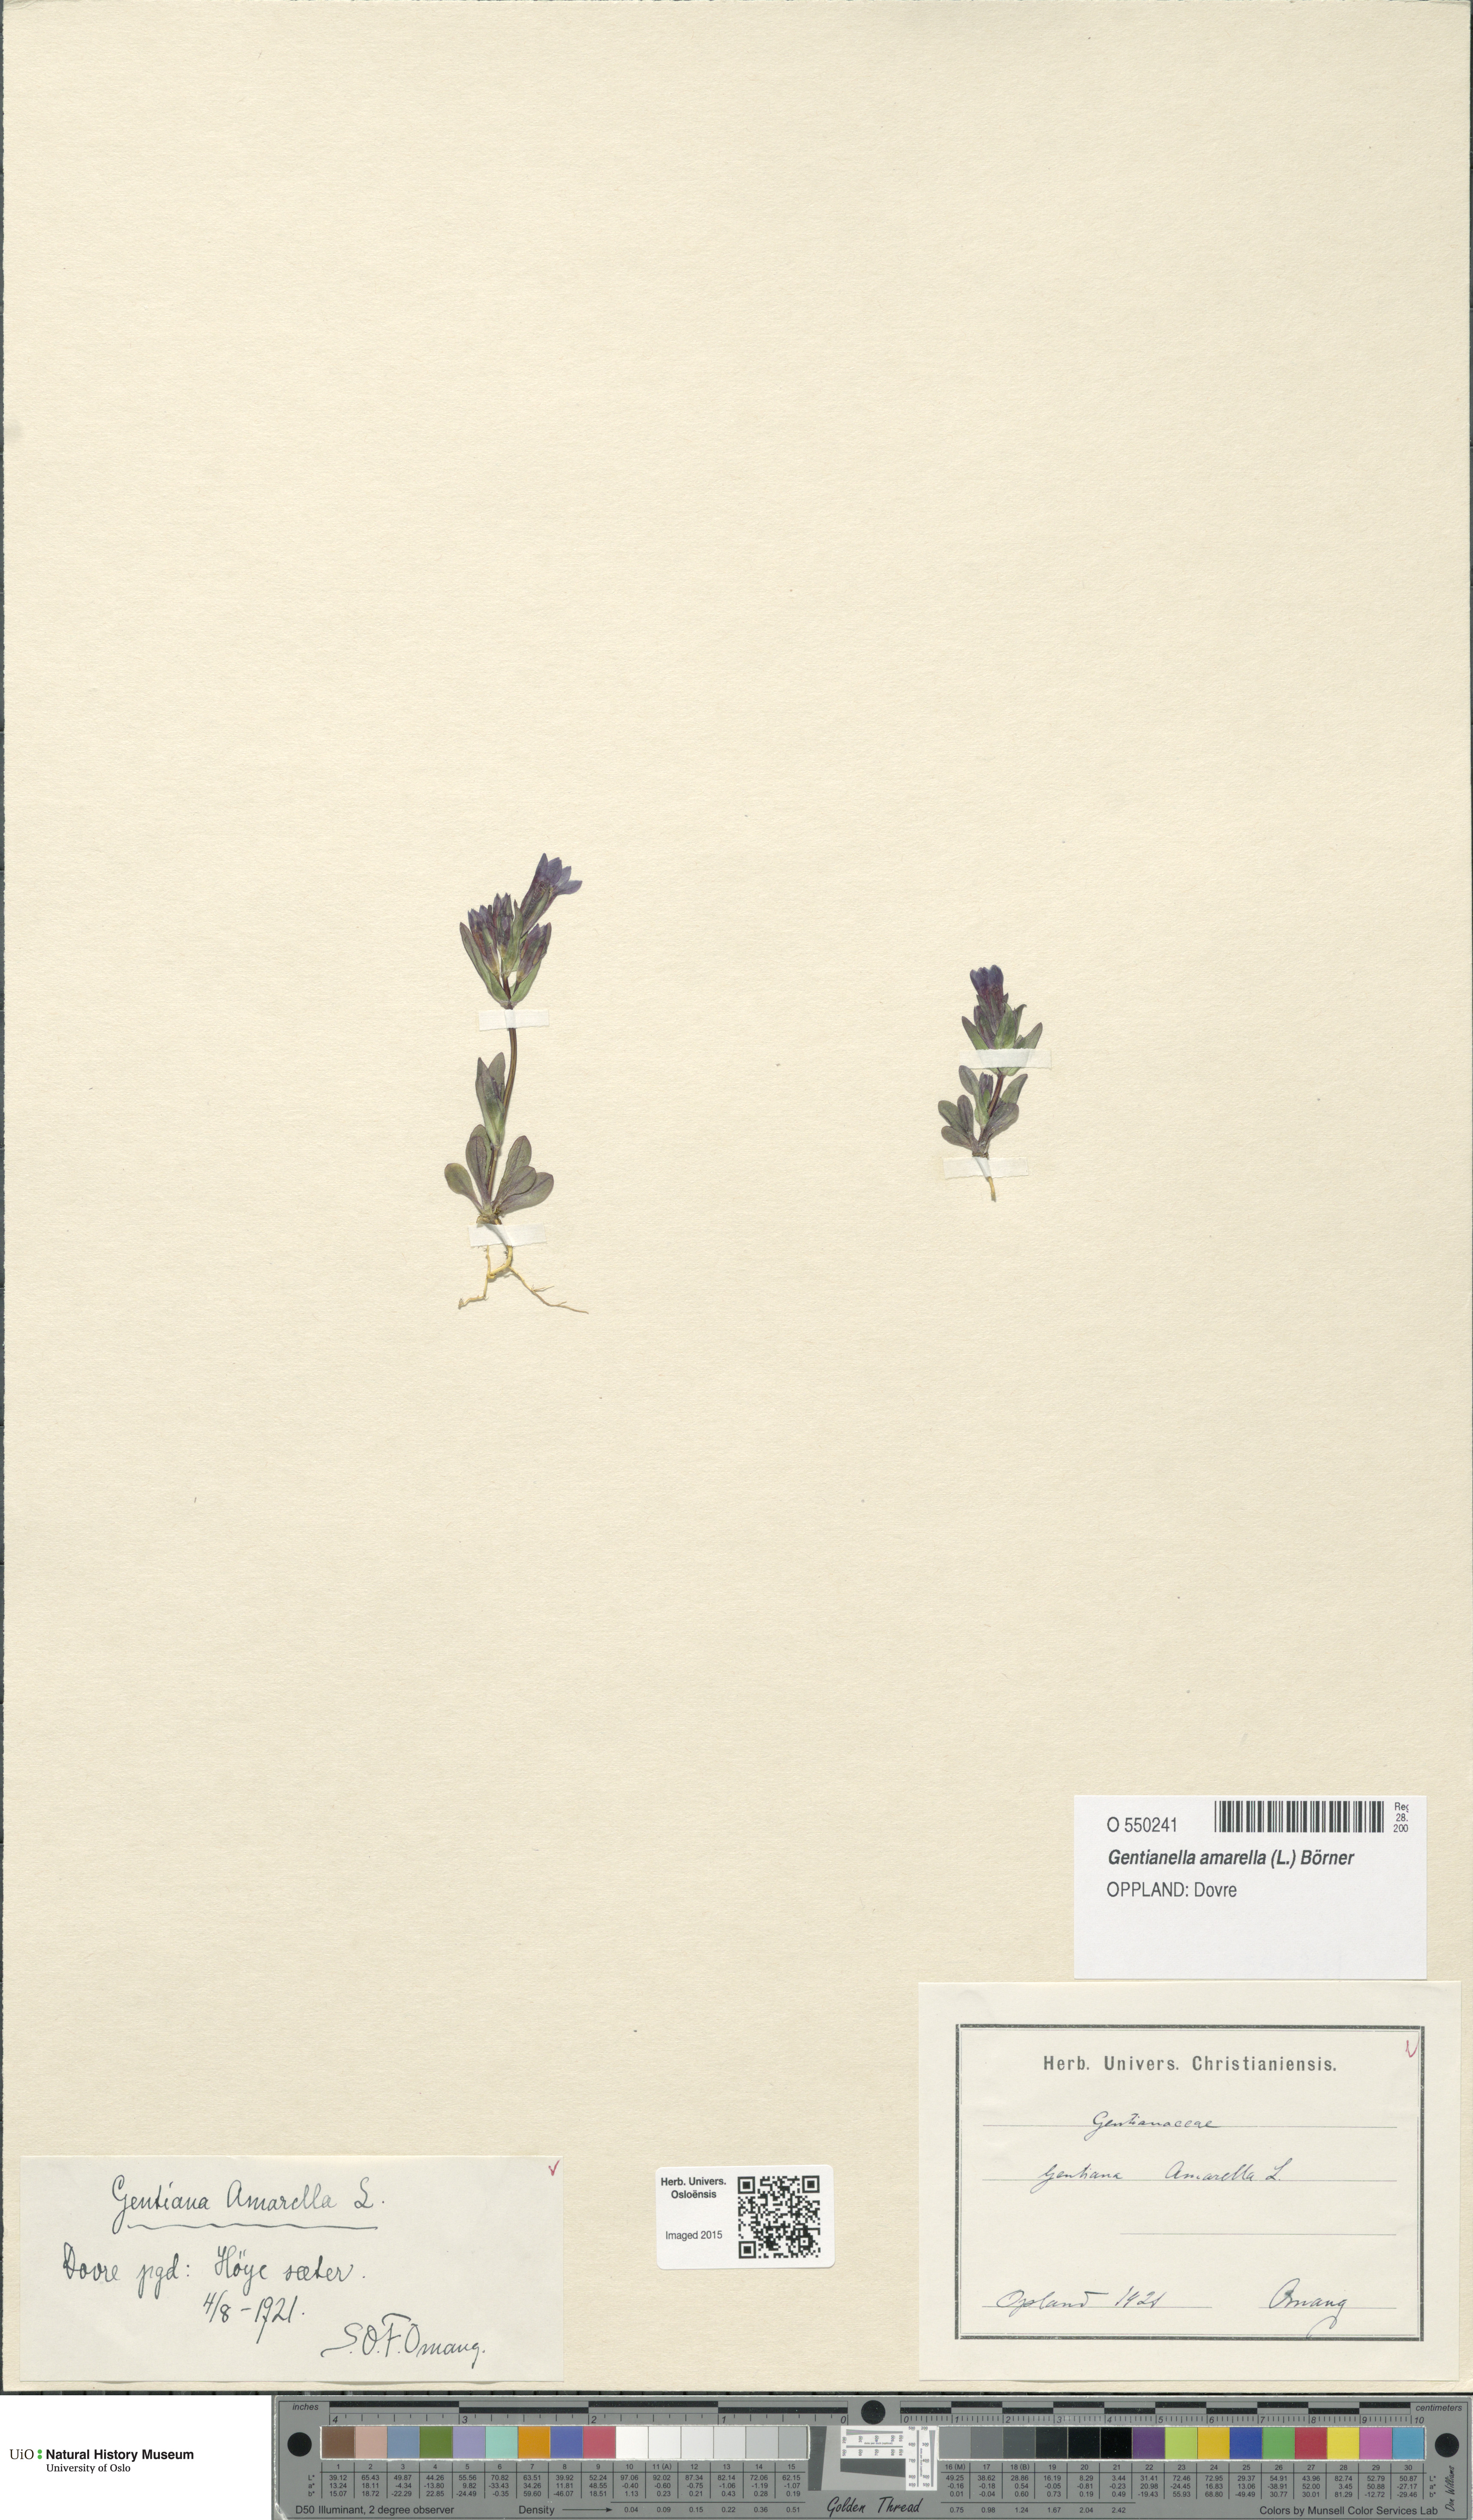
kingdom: Plantae
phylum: Tracheophyta
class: Magnoliopsida
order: Gentianales
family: Gentianaceae
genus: Gentianella
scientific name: Gentianella amarella
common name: Autumn gentian
